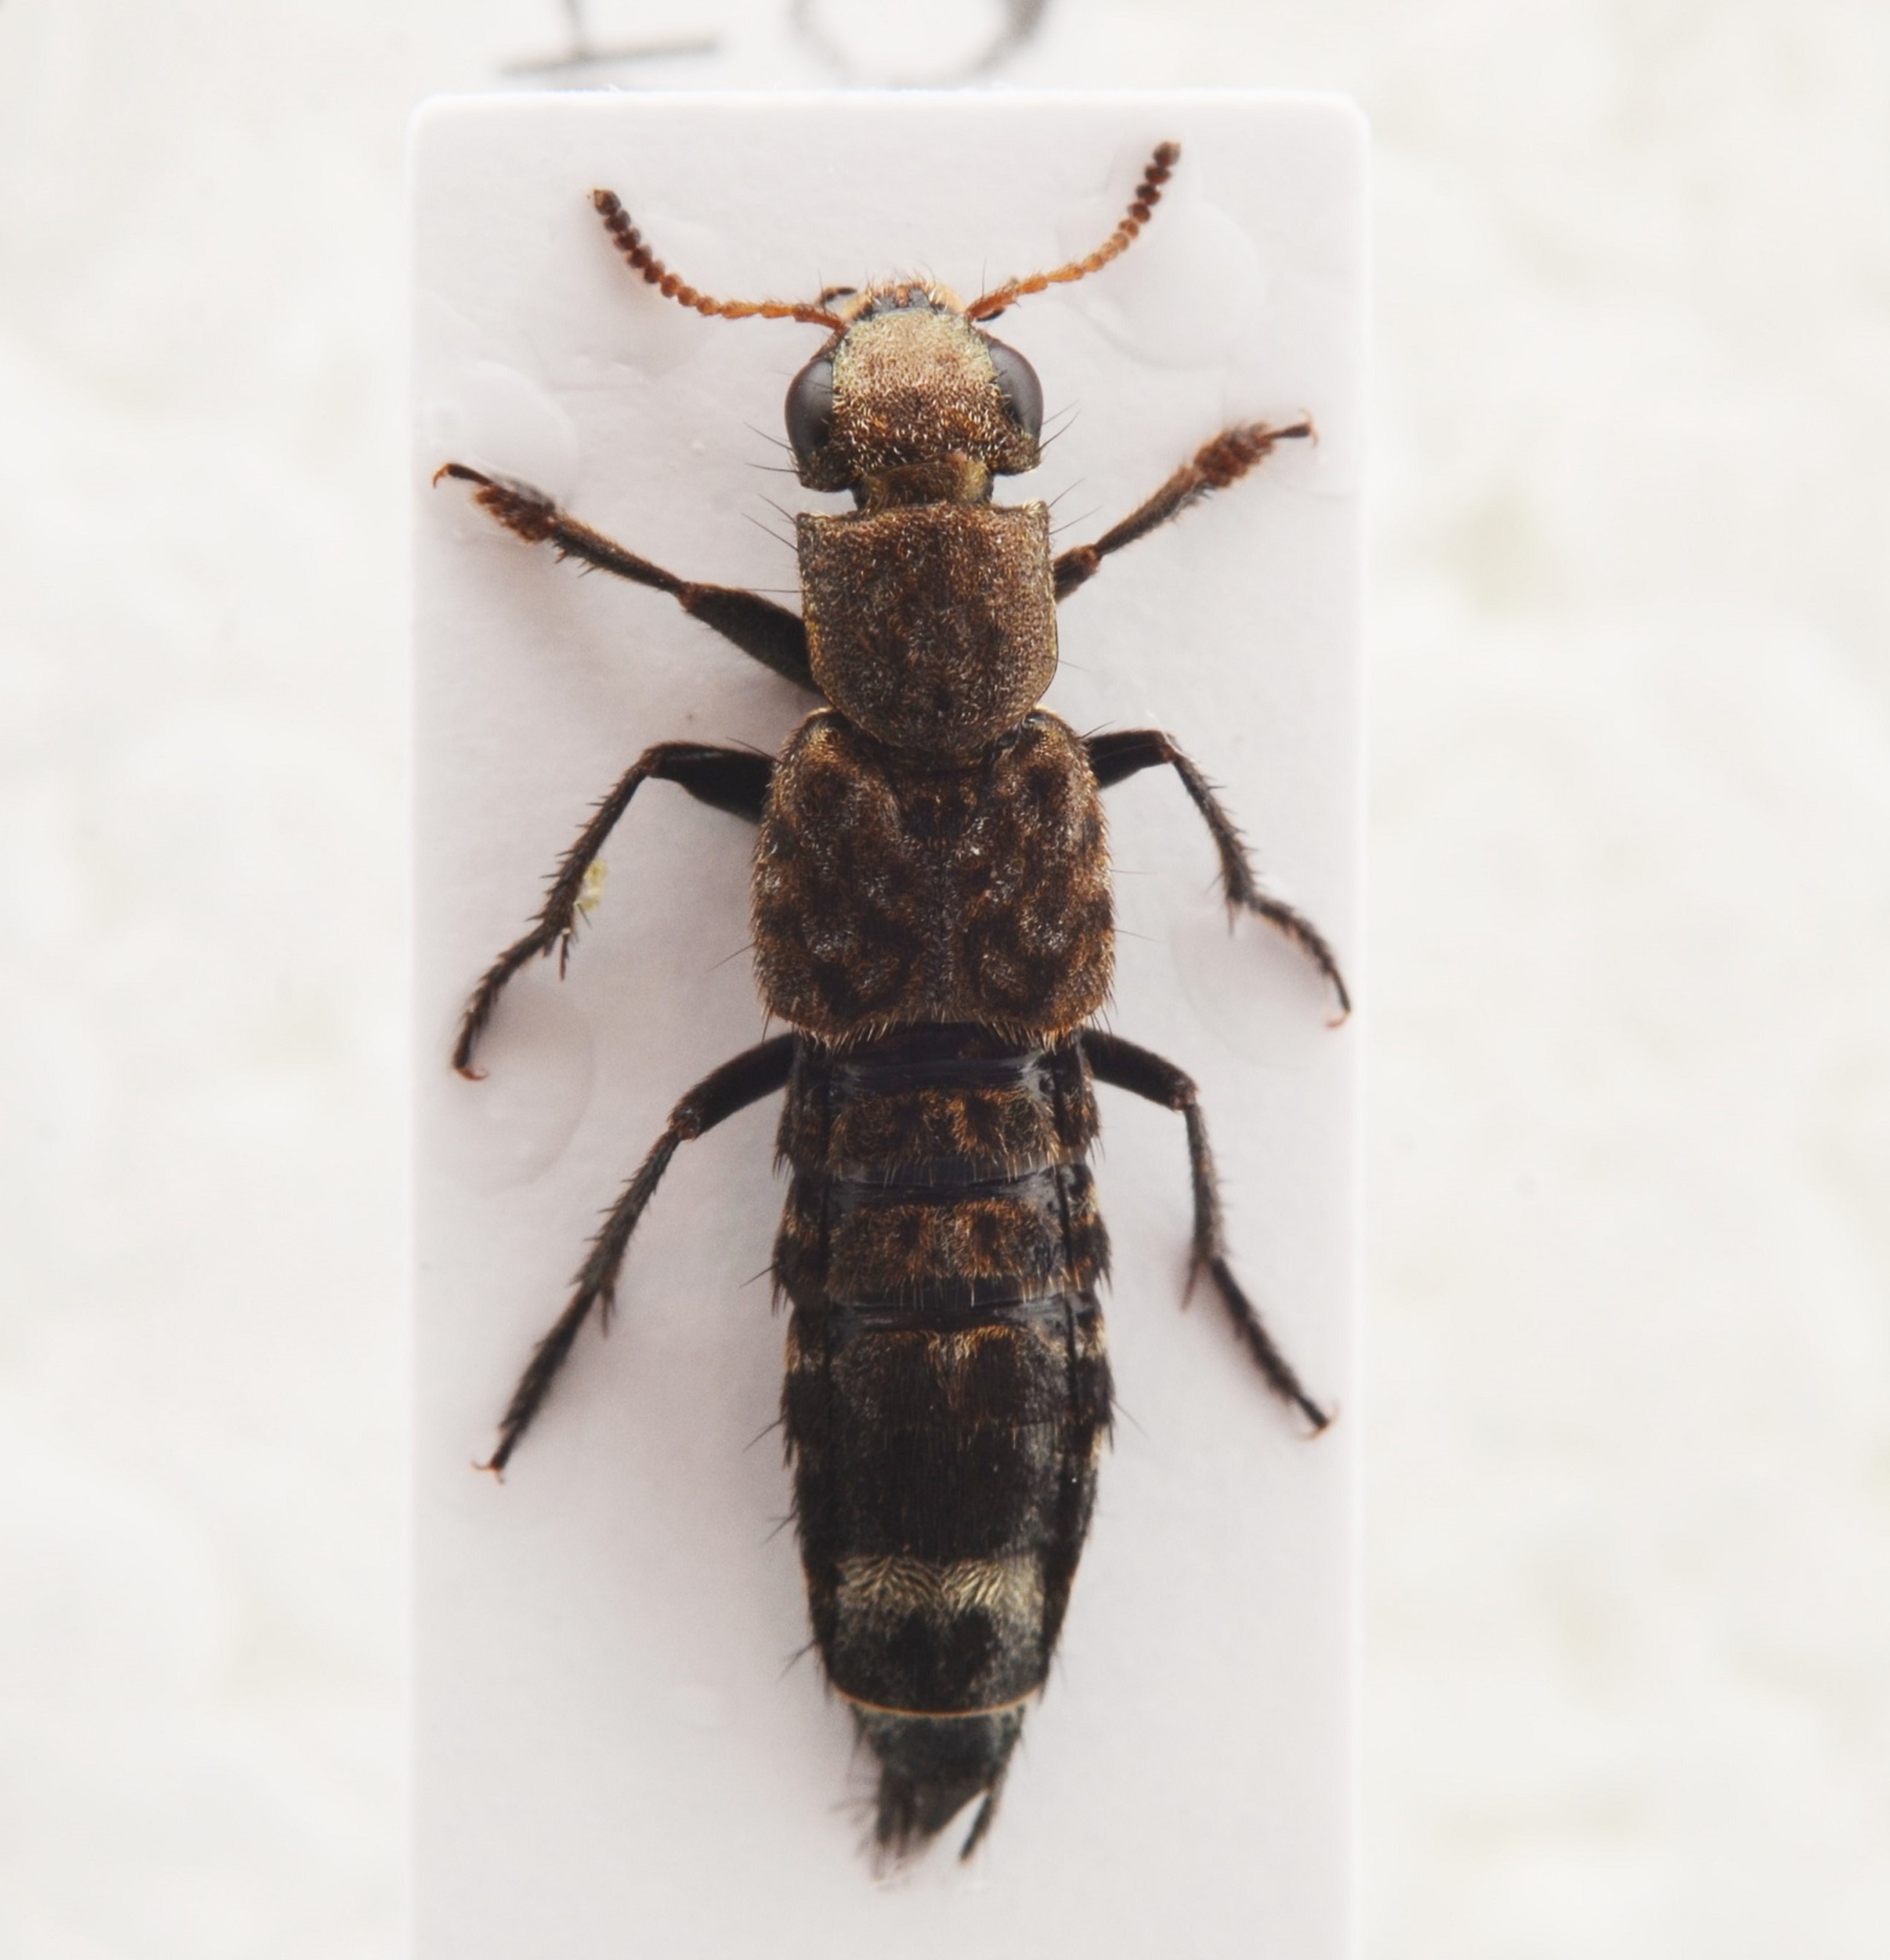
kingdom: Animalia
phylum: Arthropoda
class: Insecta
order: Coleoptera
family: Staphylinidae
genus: Ontholestes
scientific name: Ontholestes murinus
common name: Lille jagtrovbille
